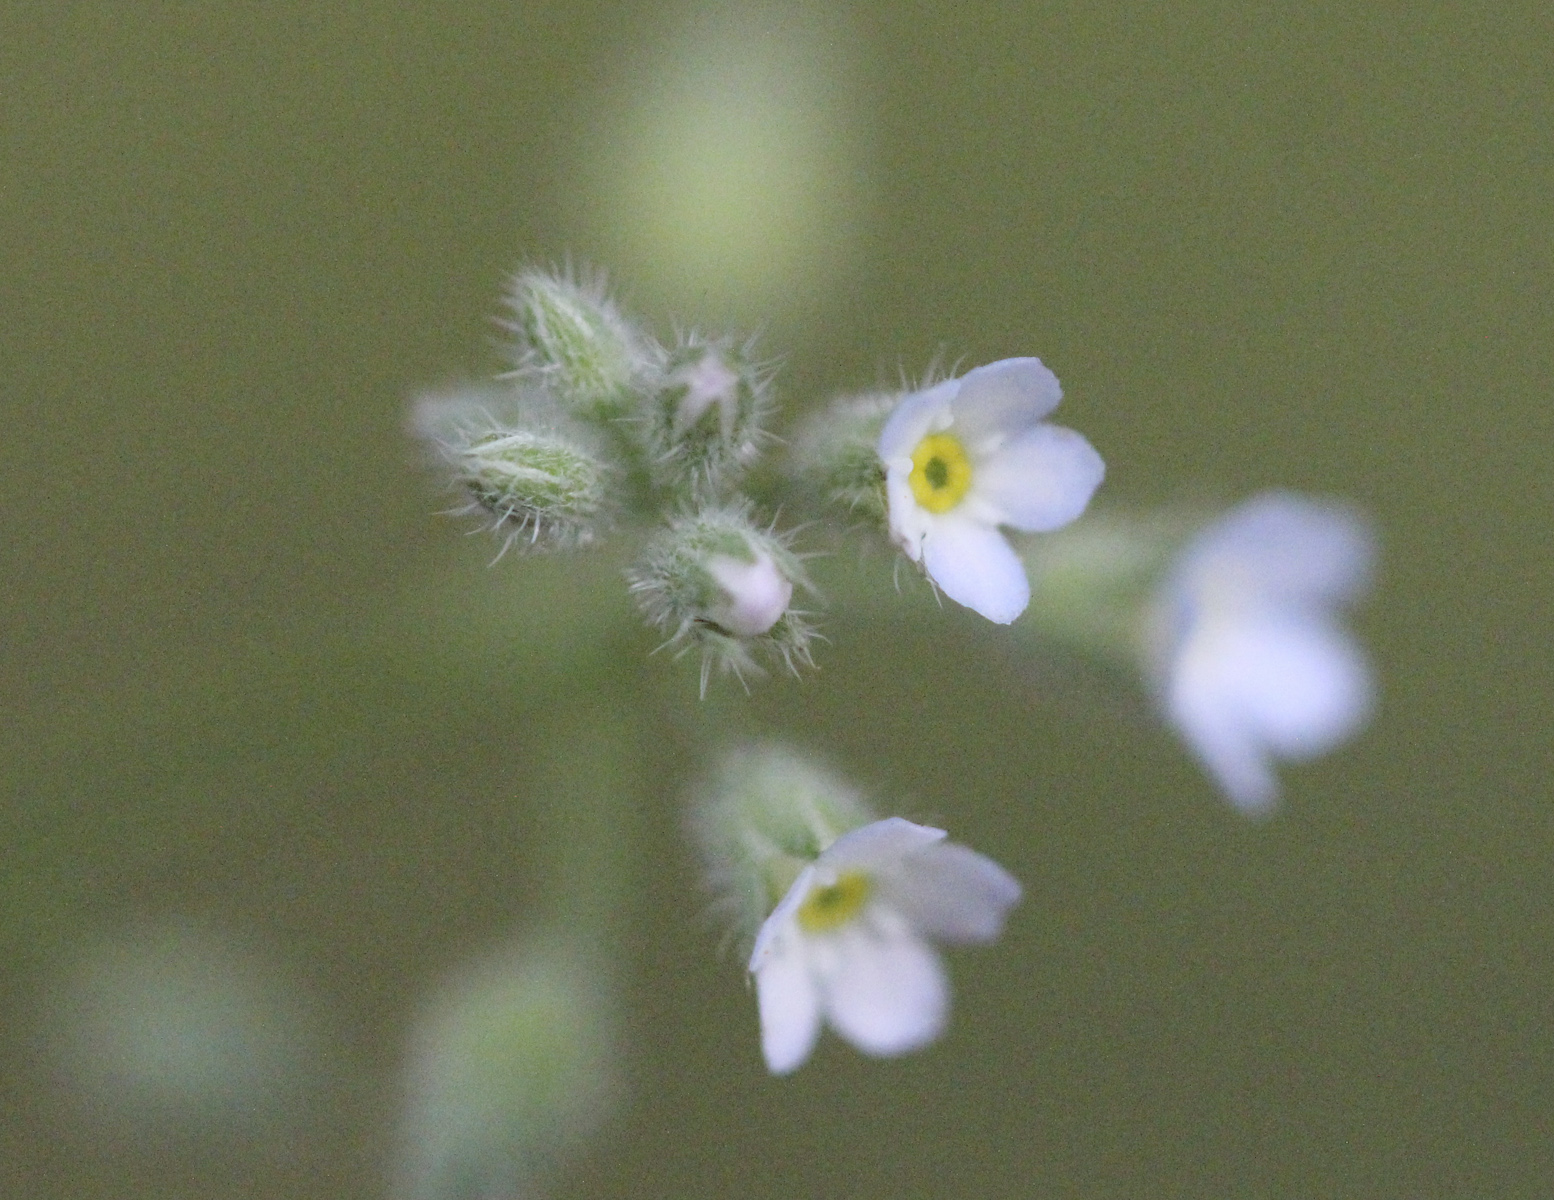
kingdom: Plantae
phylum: Tracheophyta
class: Magnoliopsida
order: Boraginales
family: Boraginaceae
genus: Myosotis
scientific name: Myosotis arvensis
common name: Field forget-me-not
